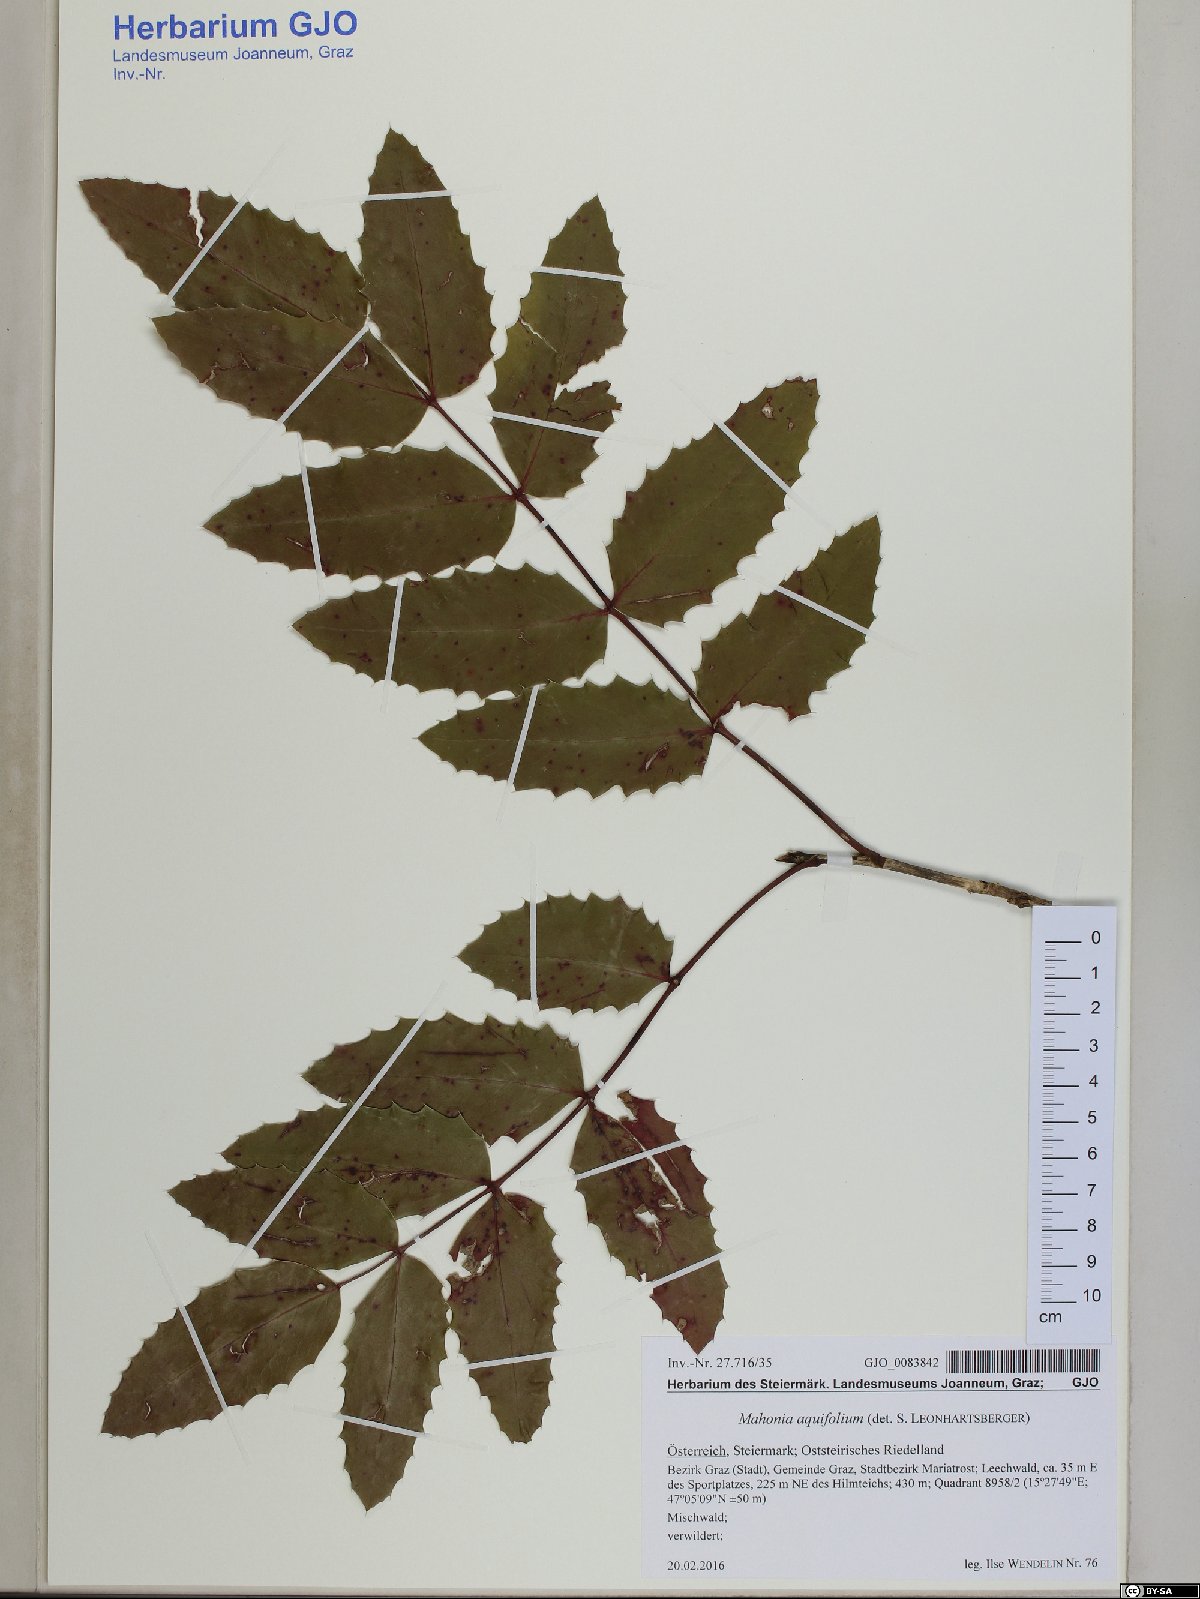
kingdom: Plantae
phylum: Tracheophyta
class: Magnoliopsida
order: Ranunculales
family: Berberidaceae
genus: Mahonia
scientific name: Mahonia aquifolium
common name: Oregon-grape
